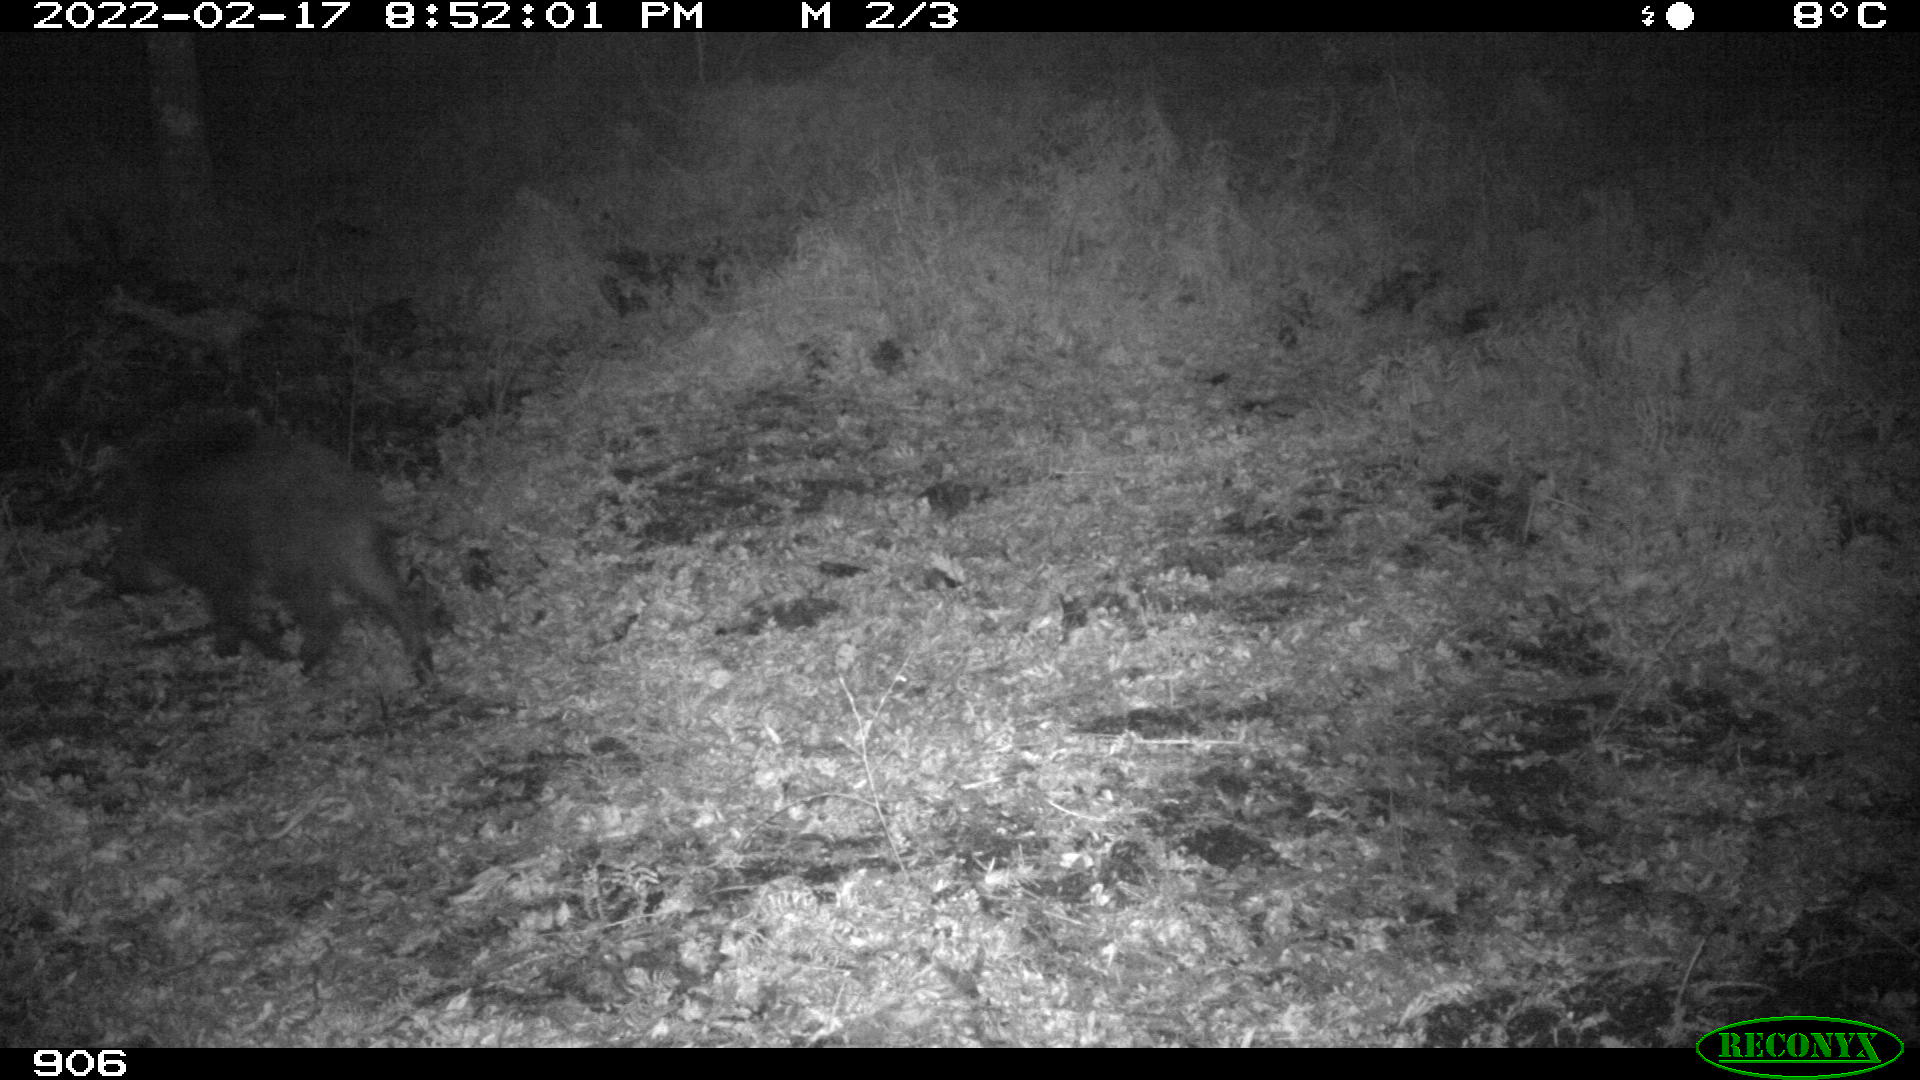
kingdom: Animalia
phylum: Chordata
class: Mammalia
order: Artiodactyla
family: Suidae
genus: Sus
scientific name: Sus scrofa
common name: Wild boar
